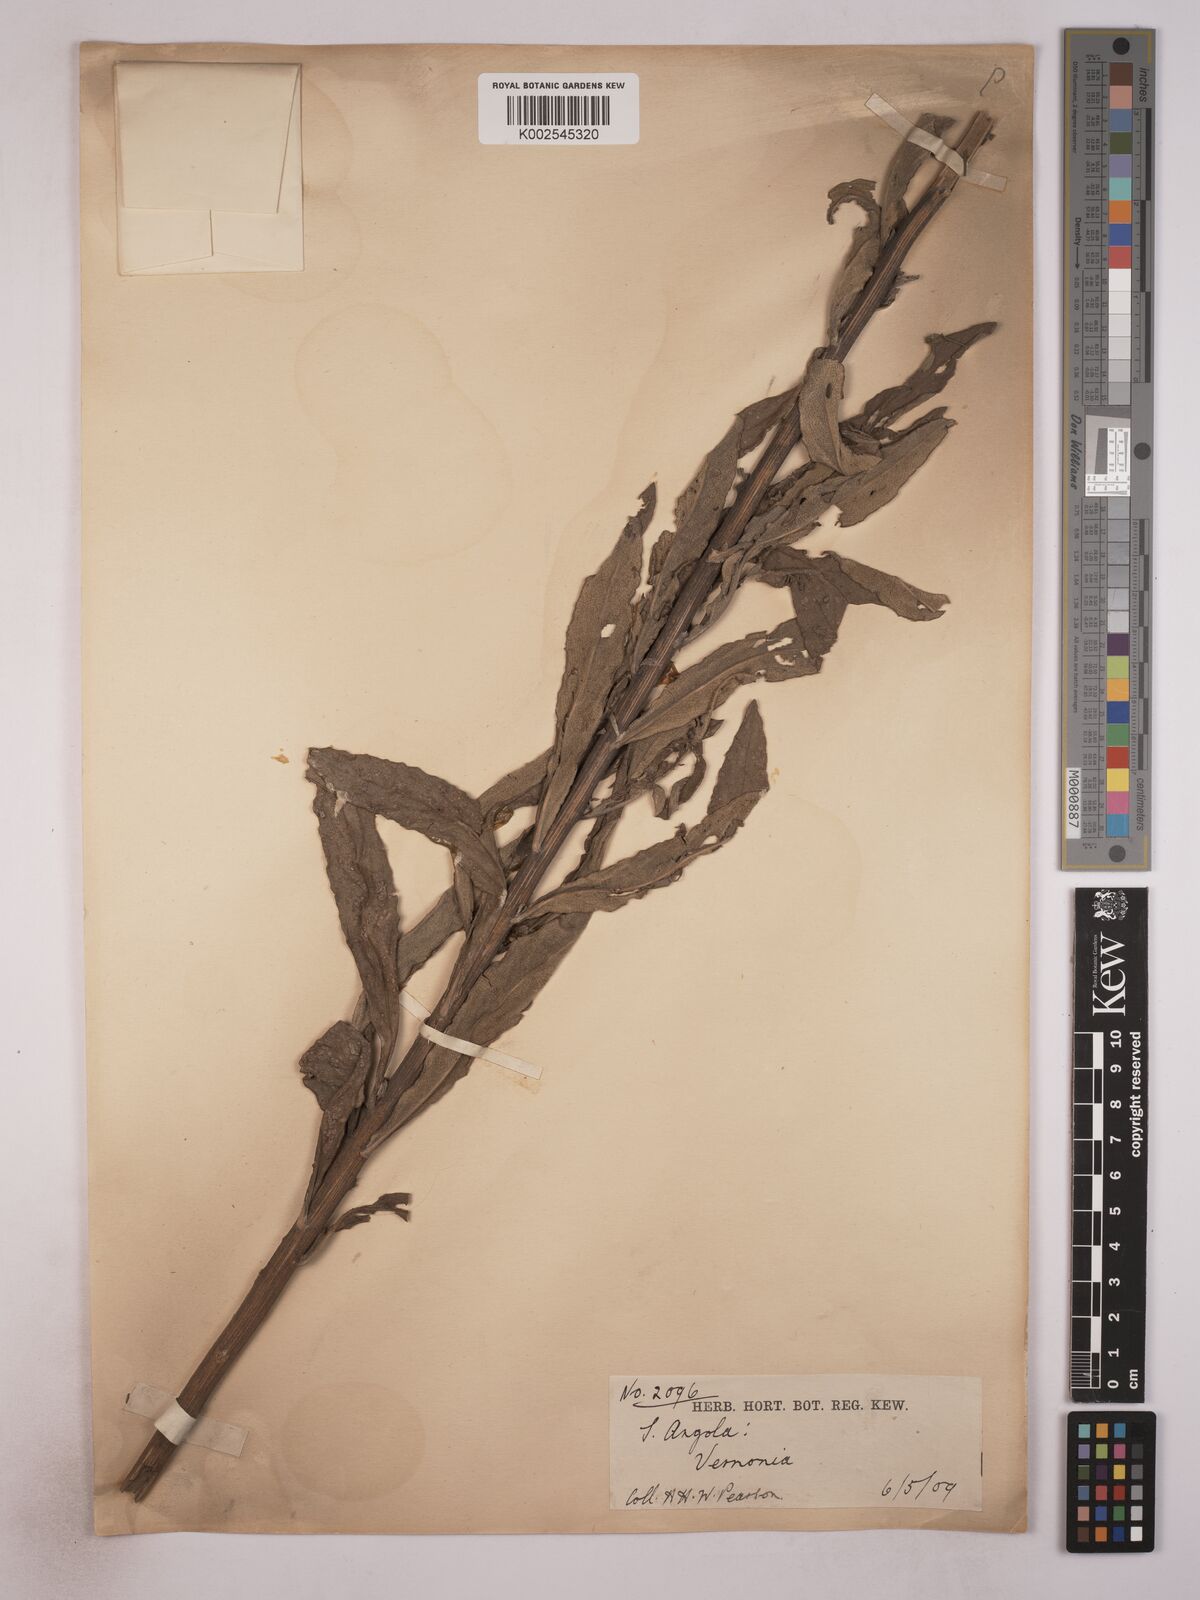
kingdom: Plantae
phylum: Tracheophyta
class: Magnoliopsida
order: Asterales
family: Asteraceae
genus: Vernonia
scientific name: Vernonia britteniana
